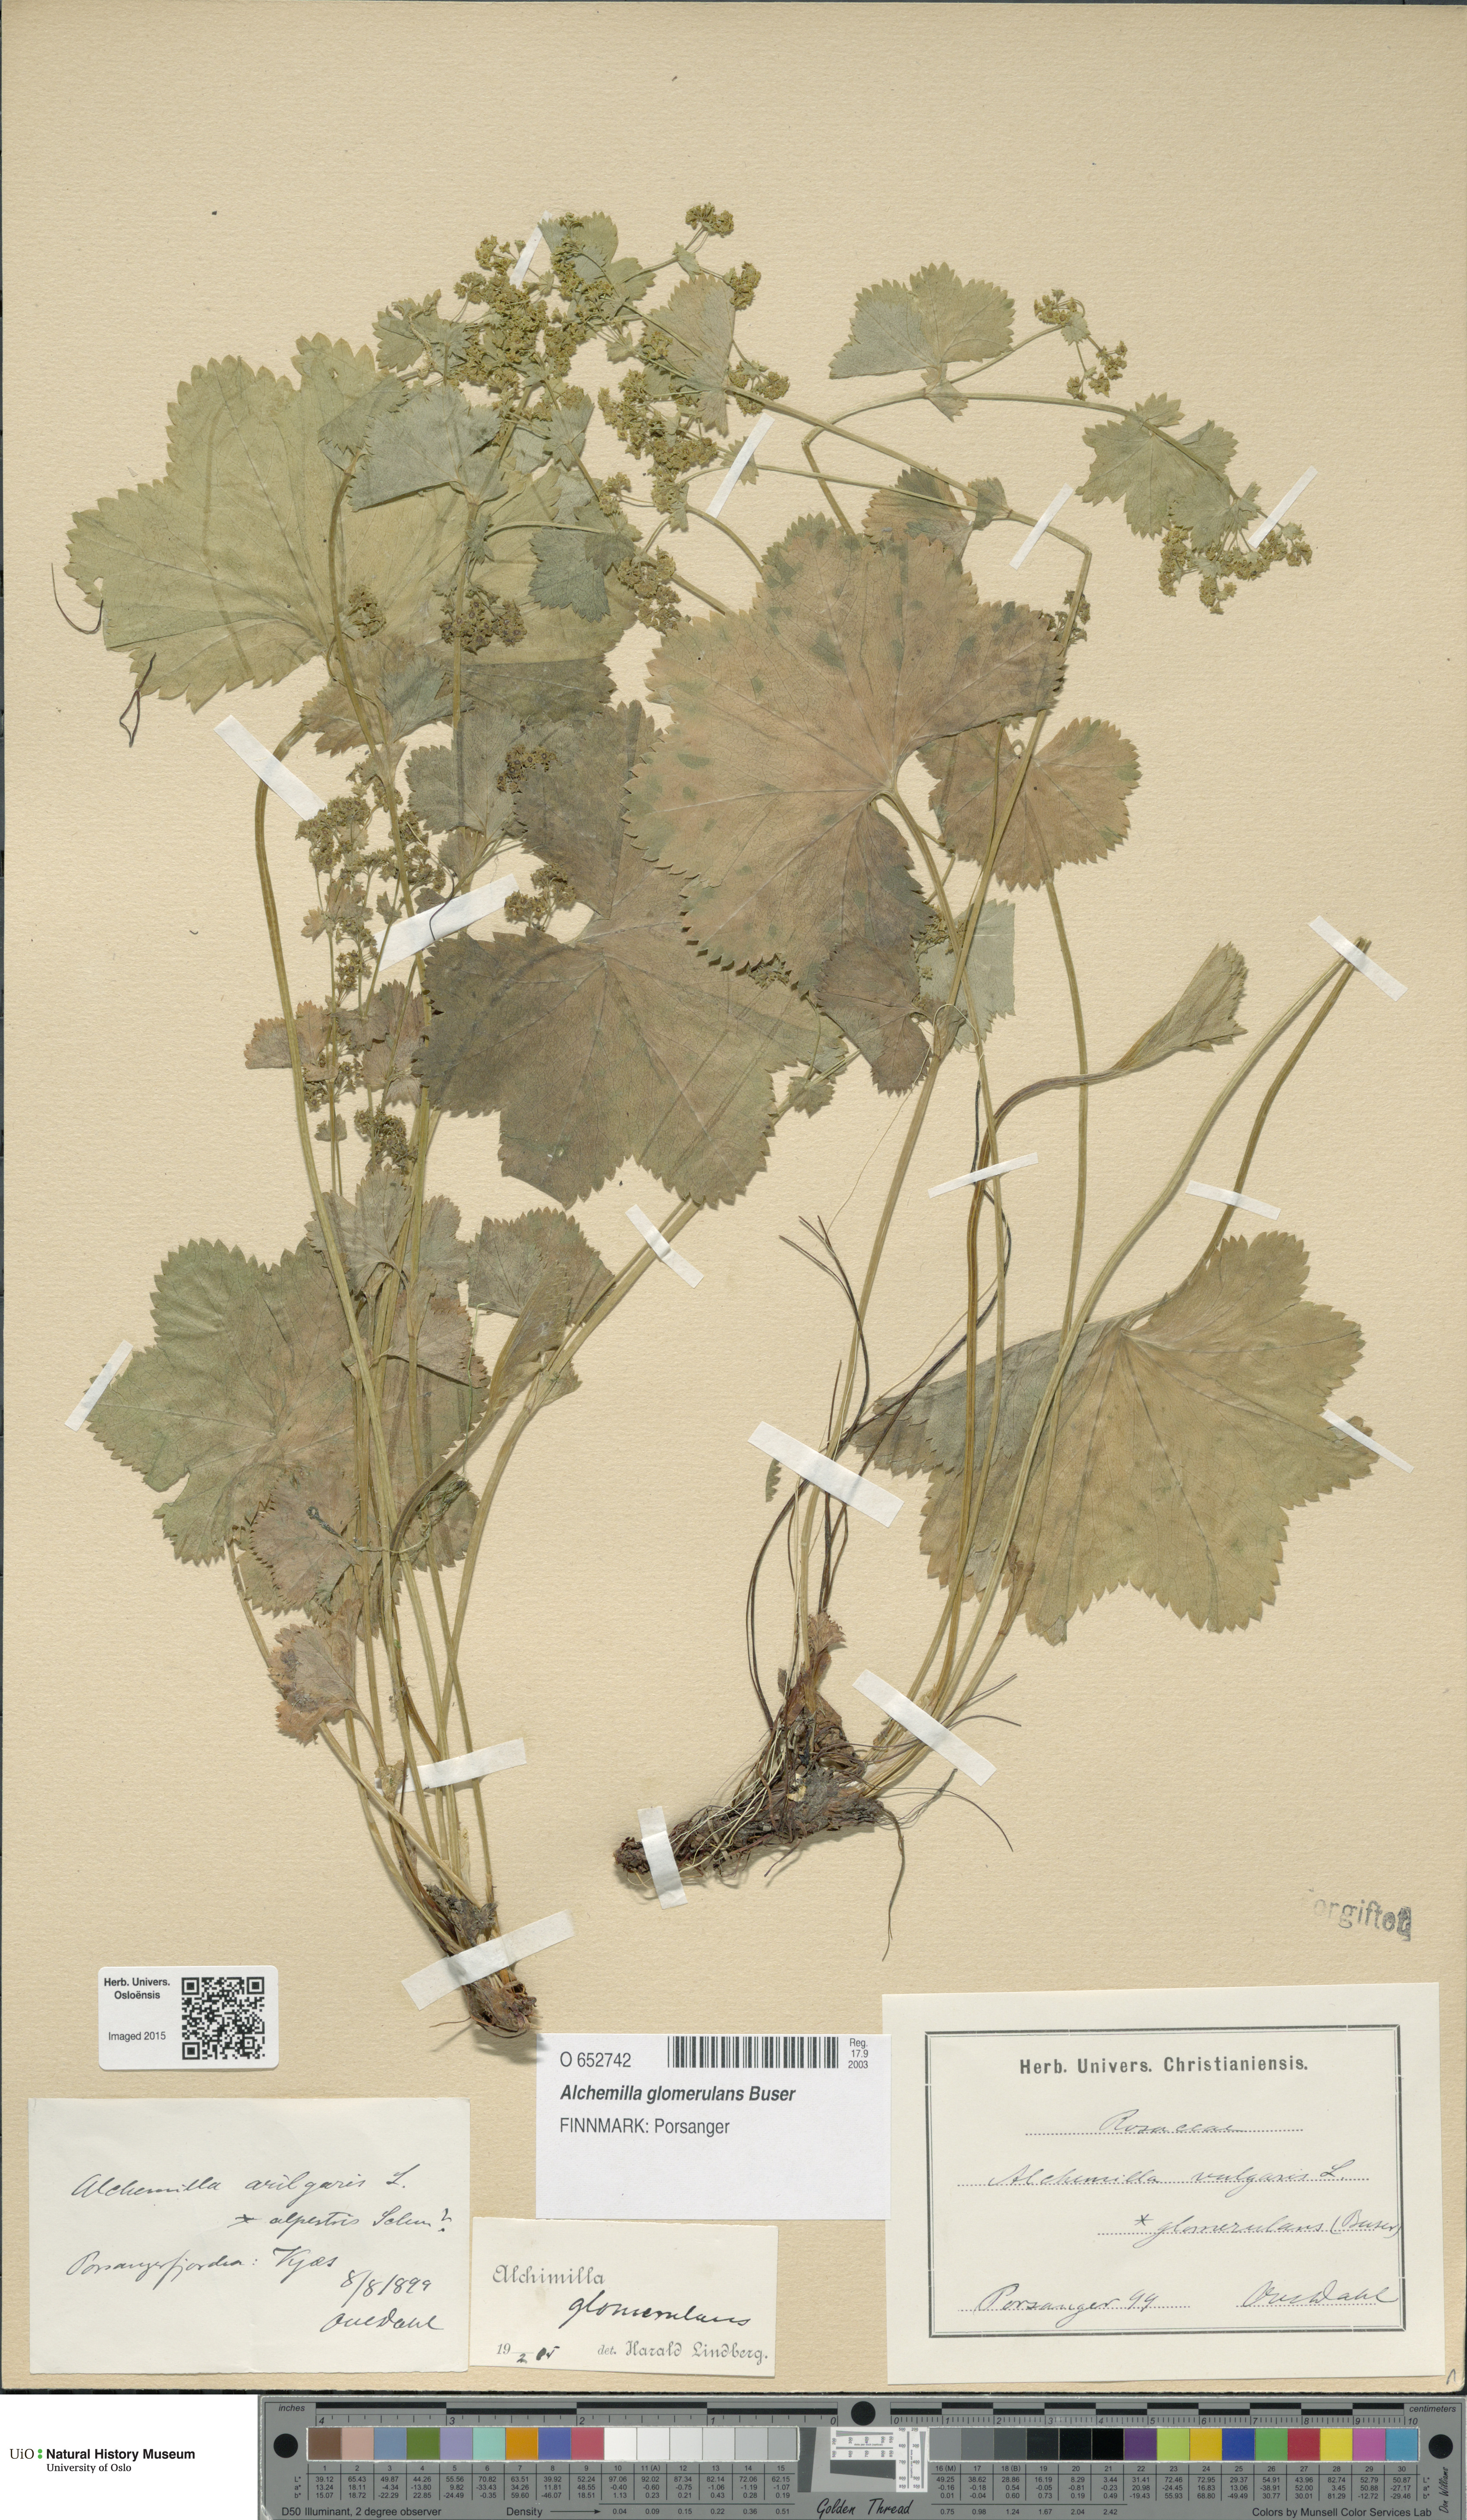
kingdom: Plantae
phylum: Tracheophyta
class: Magnoliopsida
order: Rosales
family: Rosaceae
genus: Alchemilla
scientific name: Alchemilla glomerulans
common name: Clustered lady's mantle
